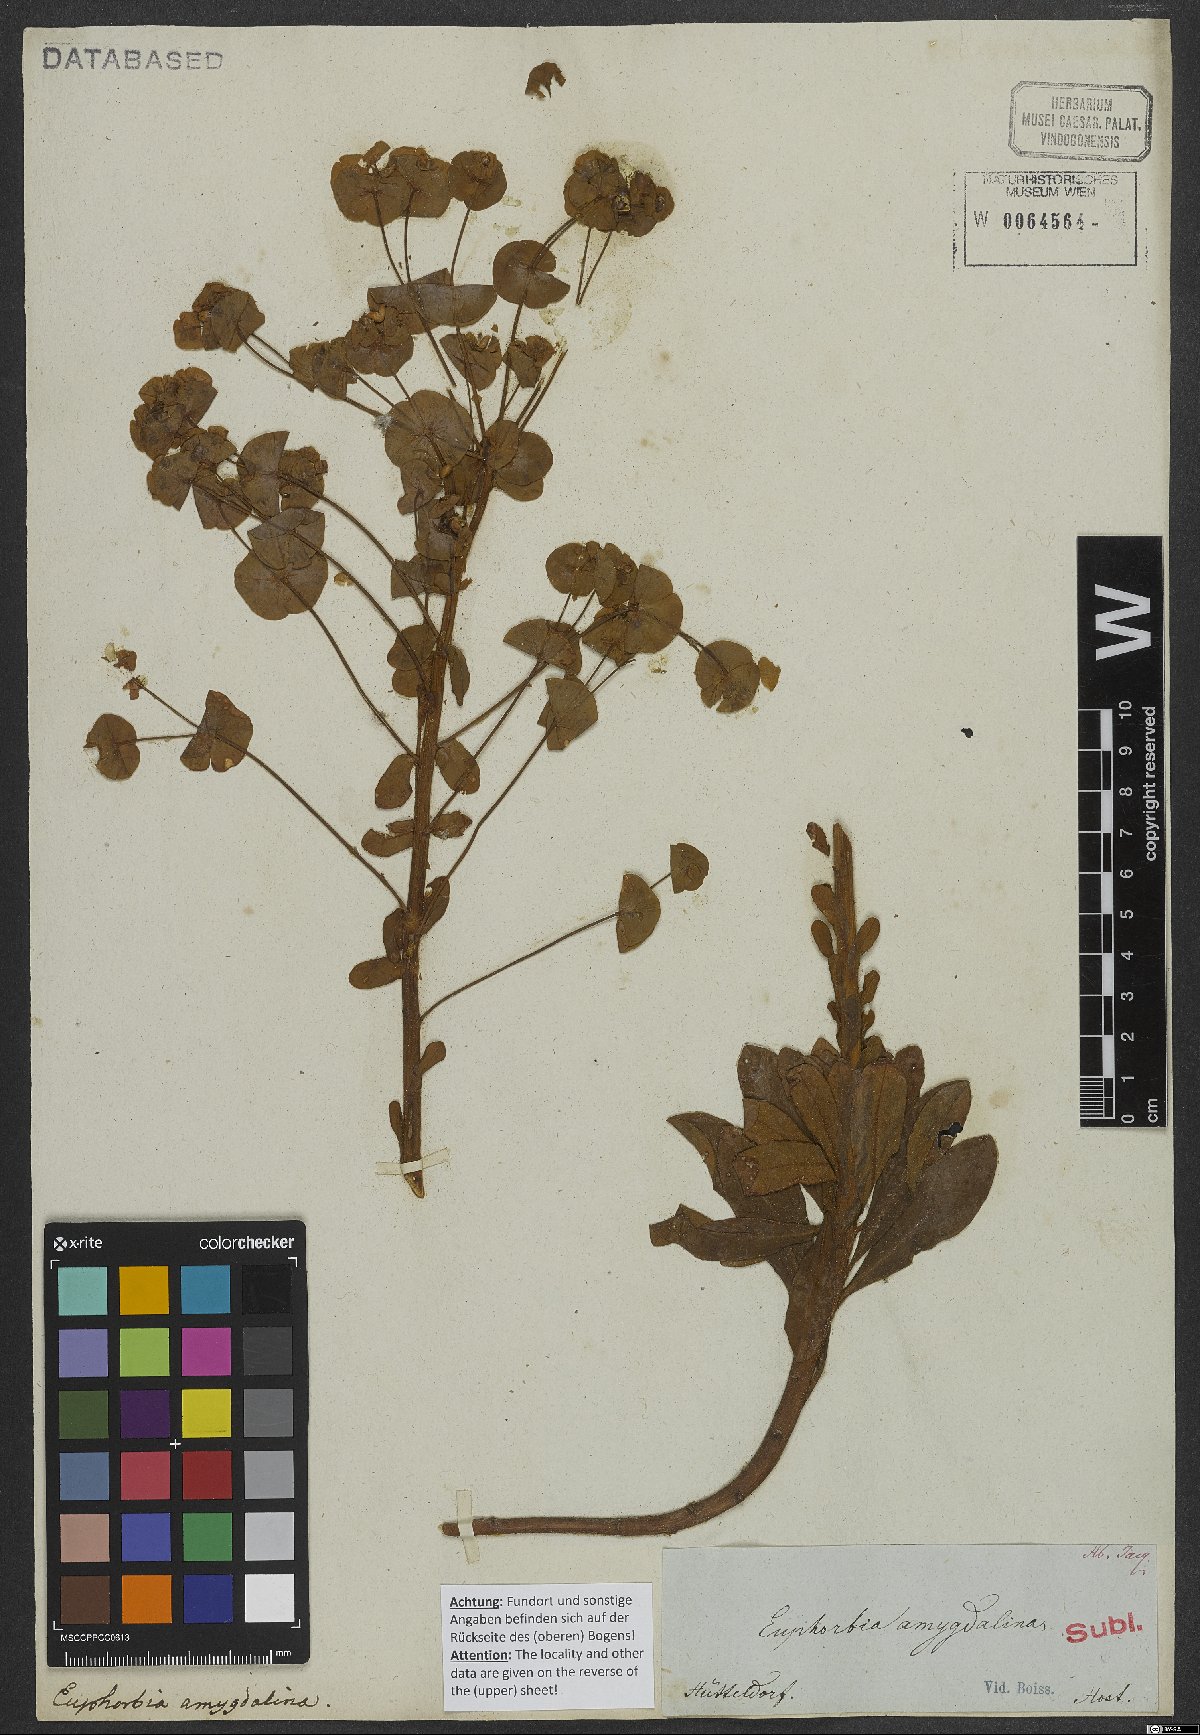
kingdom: Plantae
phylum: Tracheophyta
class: Magnoliopsida
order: Malpighiales
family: Euphorbiaceae
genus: Euphorbia
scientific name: Euphorbia amygdaloides
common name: Wood spurge
